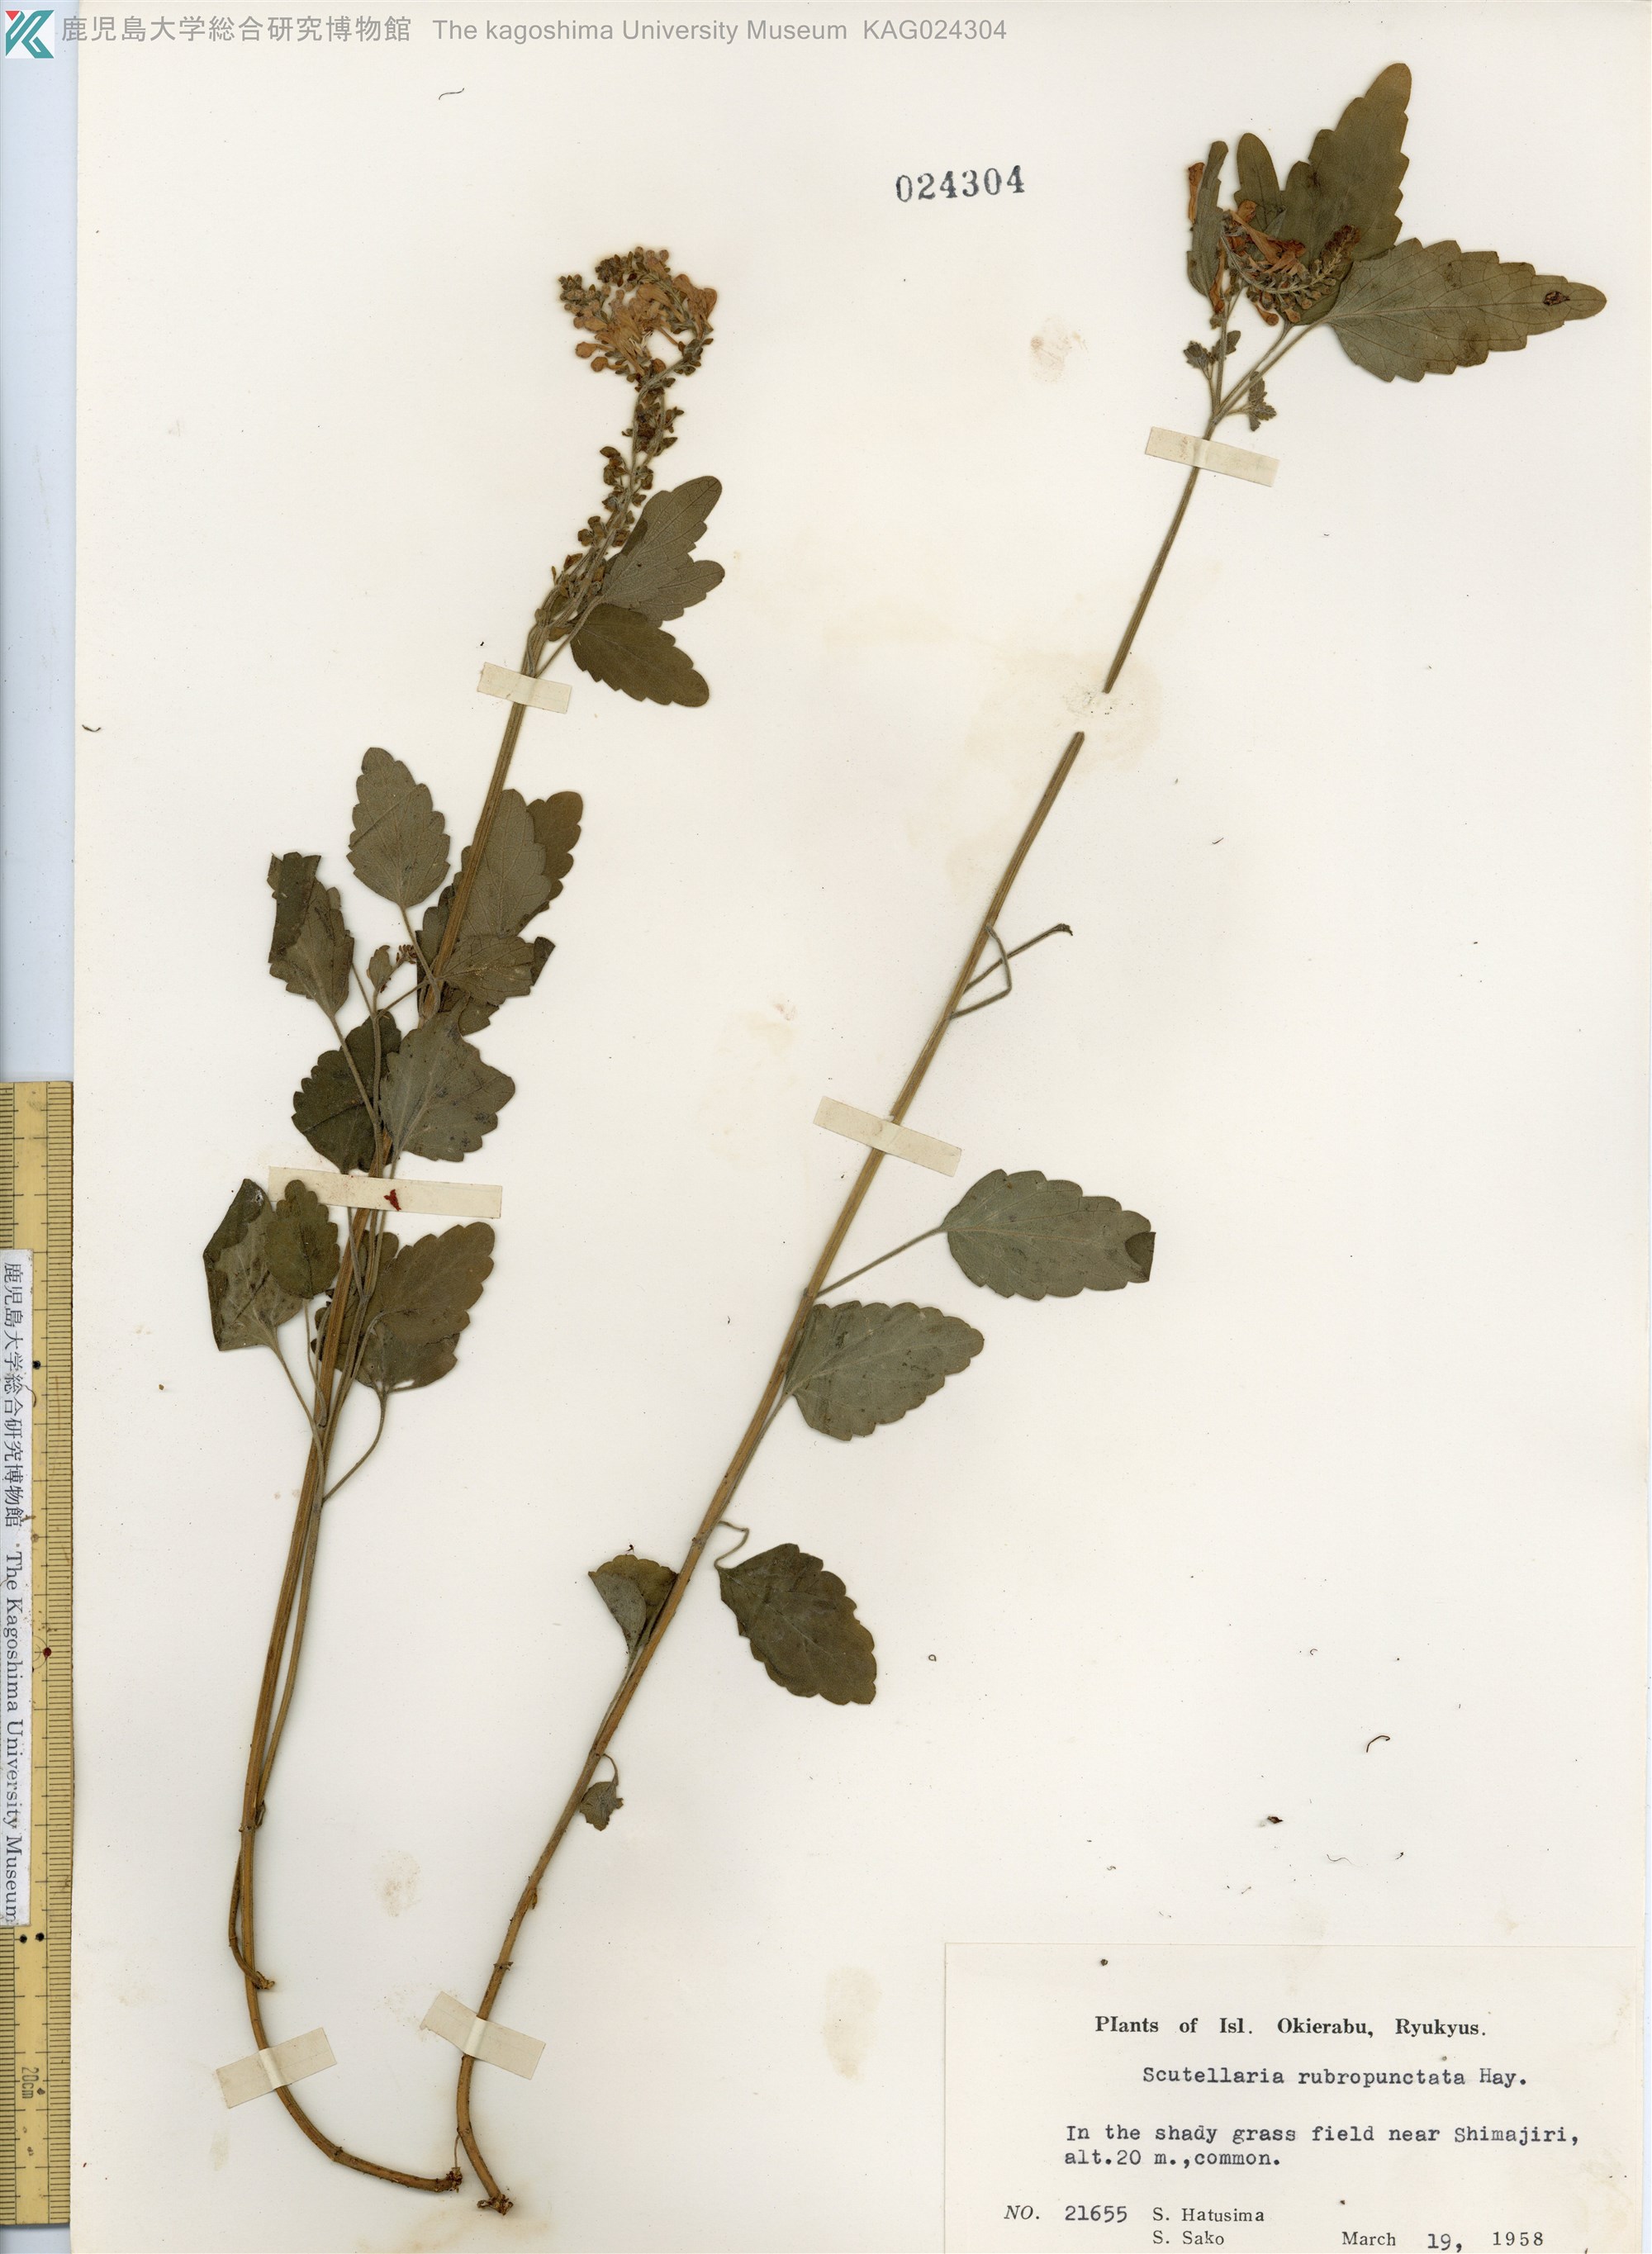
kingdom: Plantae
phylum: Tracheophyta
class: Magnoliopsida
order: Lamiales
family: Lamiaceae
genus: Scutellaria
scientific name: Scutellaria rubropunctata
